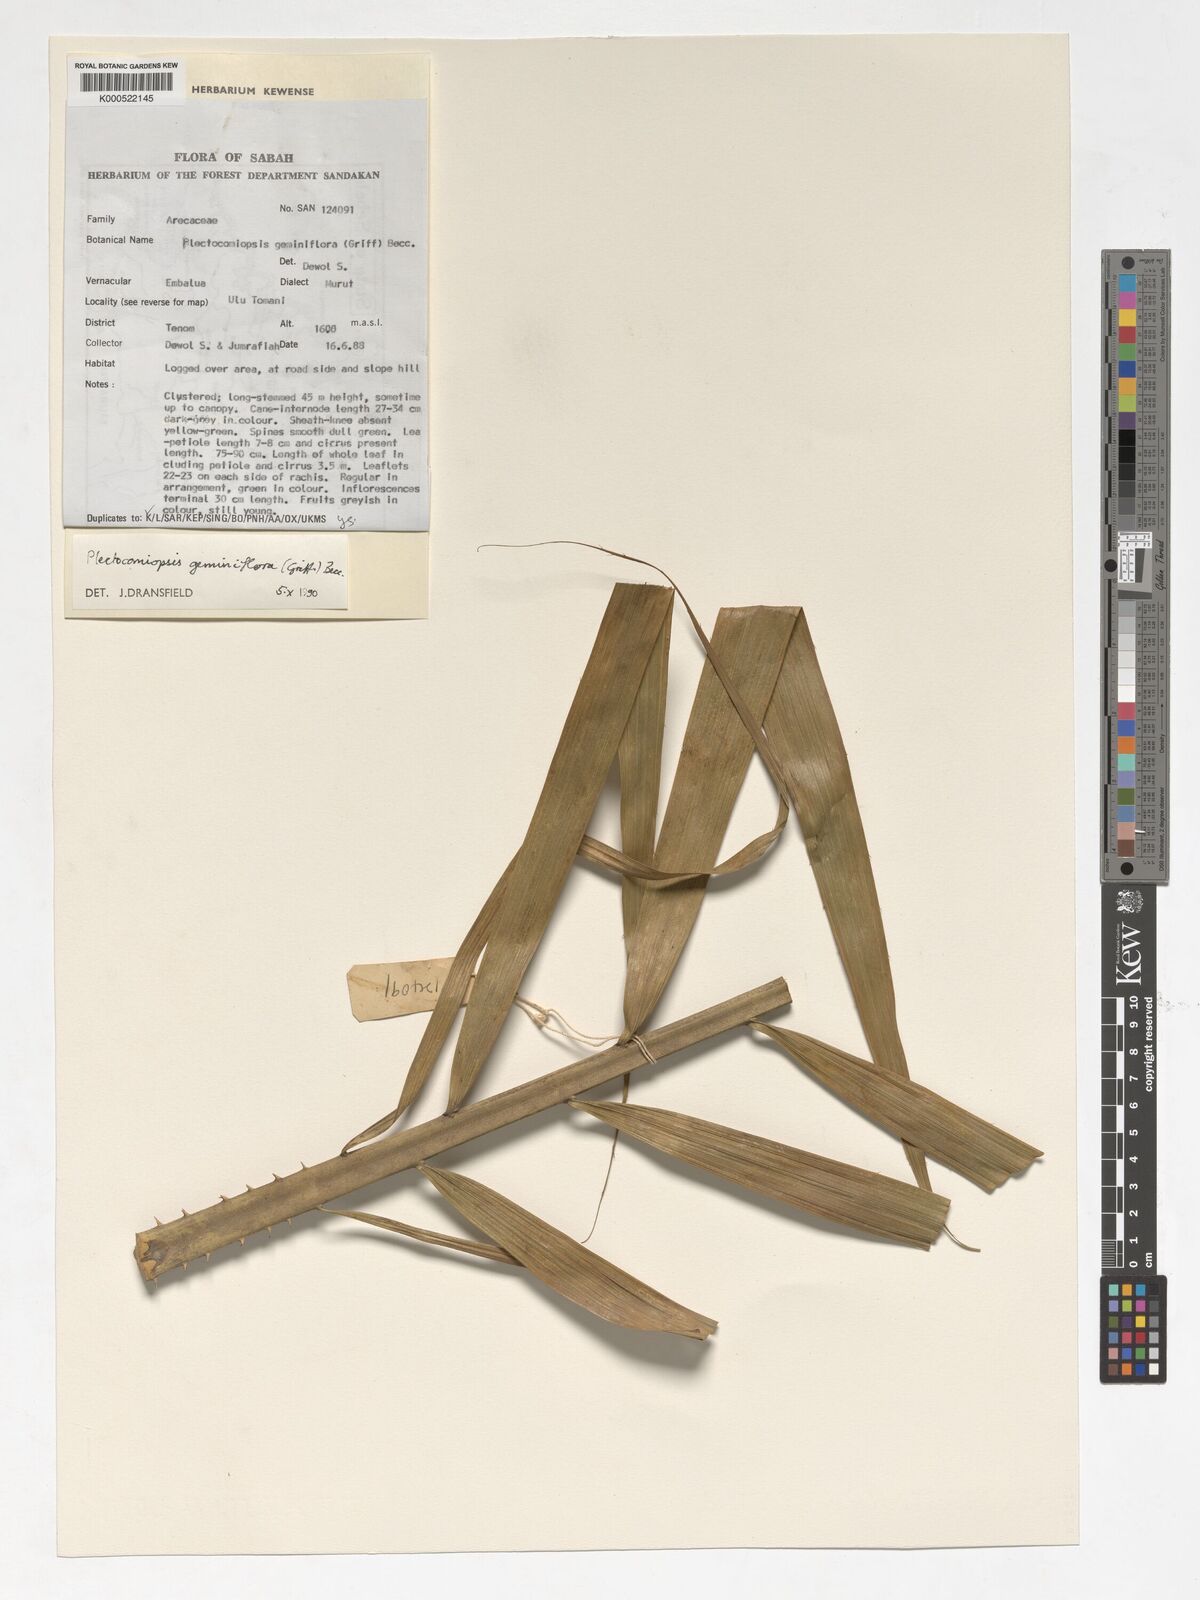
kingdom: Plantae
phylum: Tracheophyta
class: Liliopsida
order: Arecales
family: Arecaceae
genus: Plectocomiopsis
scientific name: Plectocomiopsis geminiflora
